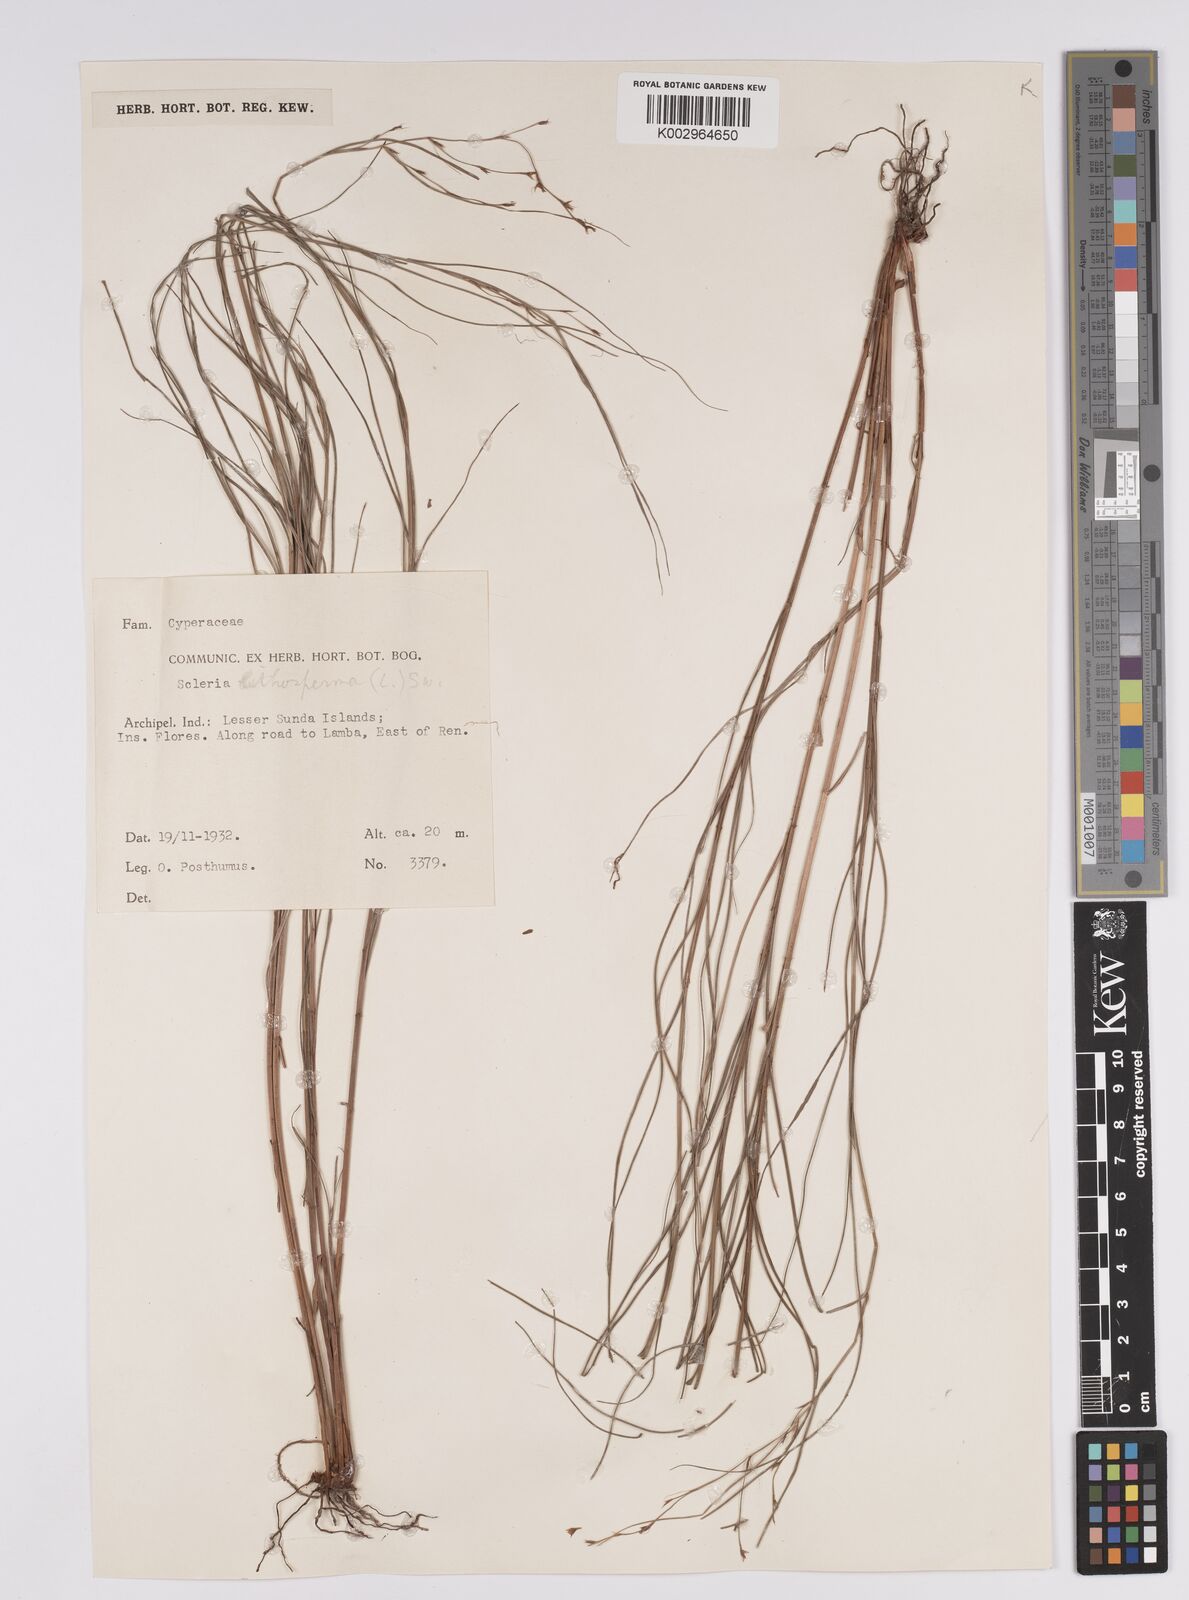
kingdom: Plantae
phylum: Tracheophyta
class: Liliopsida
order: Poales
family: Cyperaceae
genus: Scleria
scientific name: Scleria lithosperma
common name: Florida keys nut-rush
